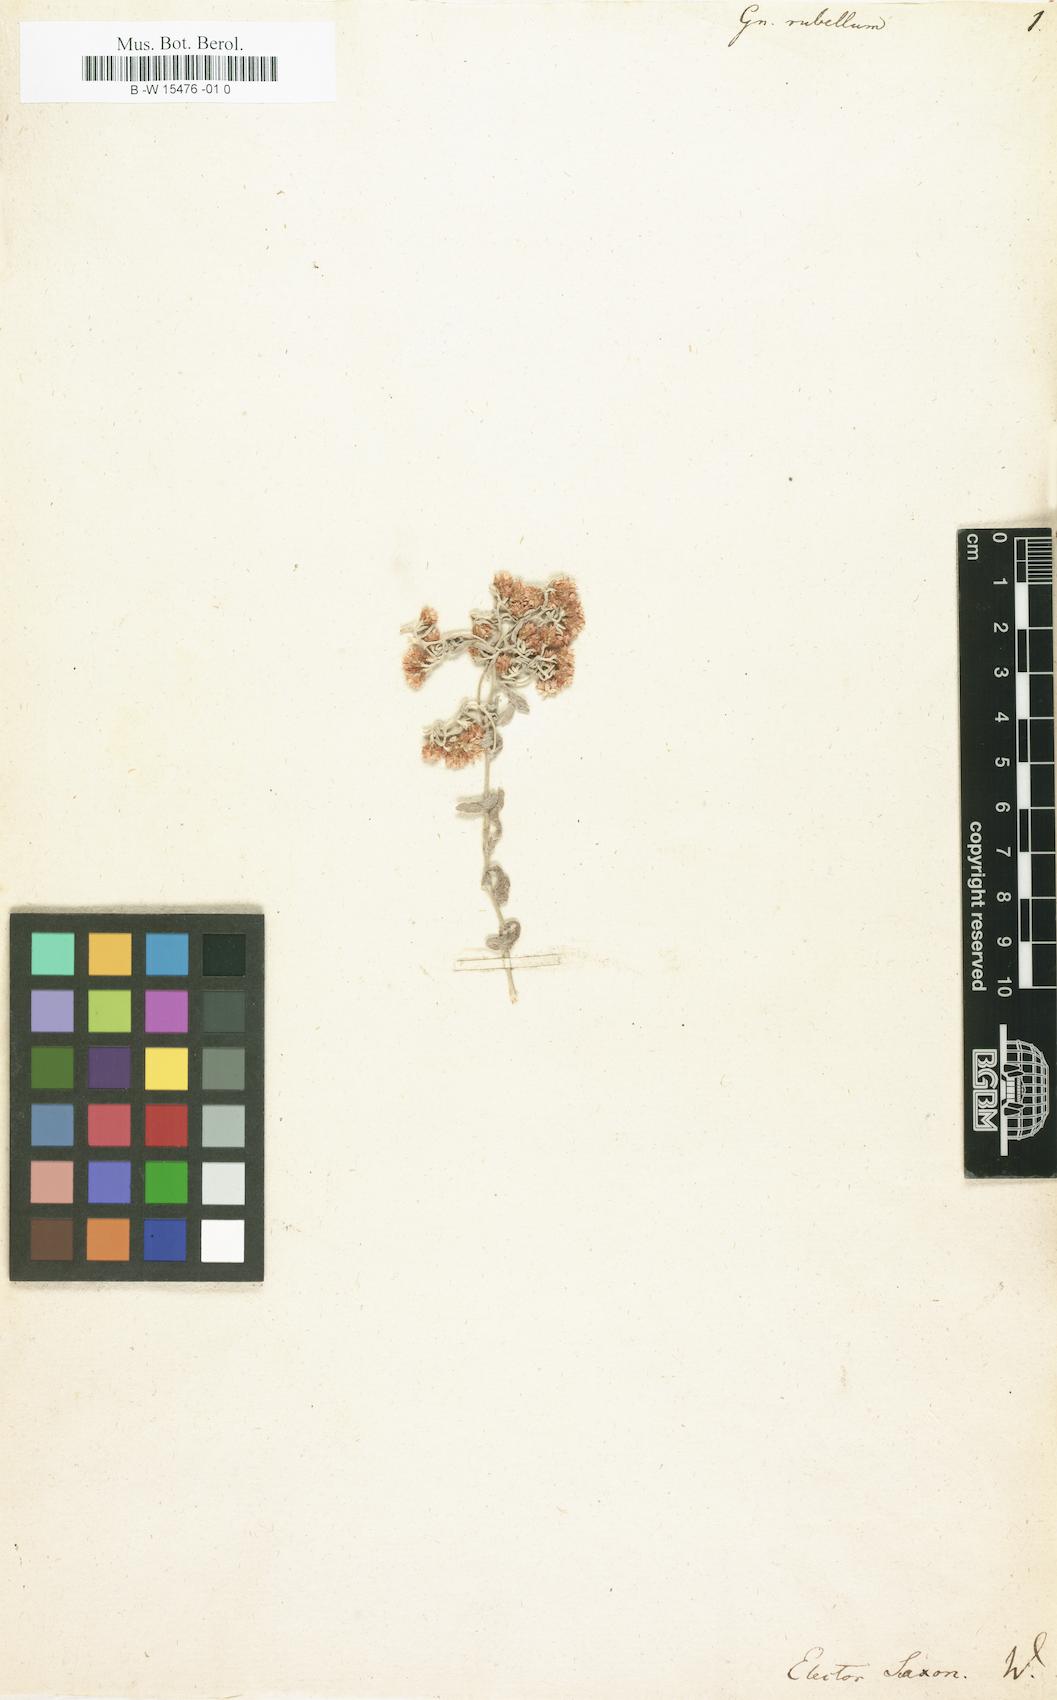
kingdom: Plantae
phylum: Tracheophyta
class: Magnoliopsida
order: Asterales
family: Asteraceae
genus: Helichrysum
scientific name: Helichrysum cylindriflorum
